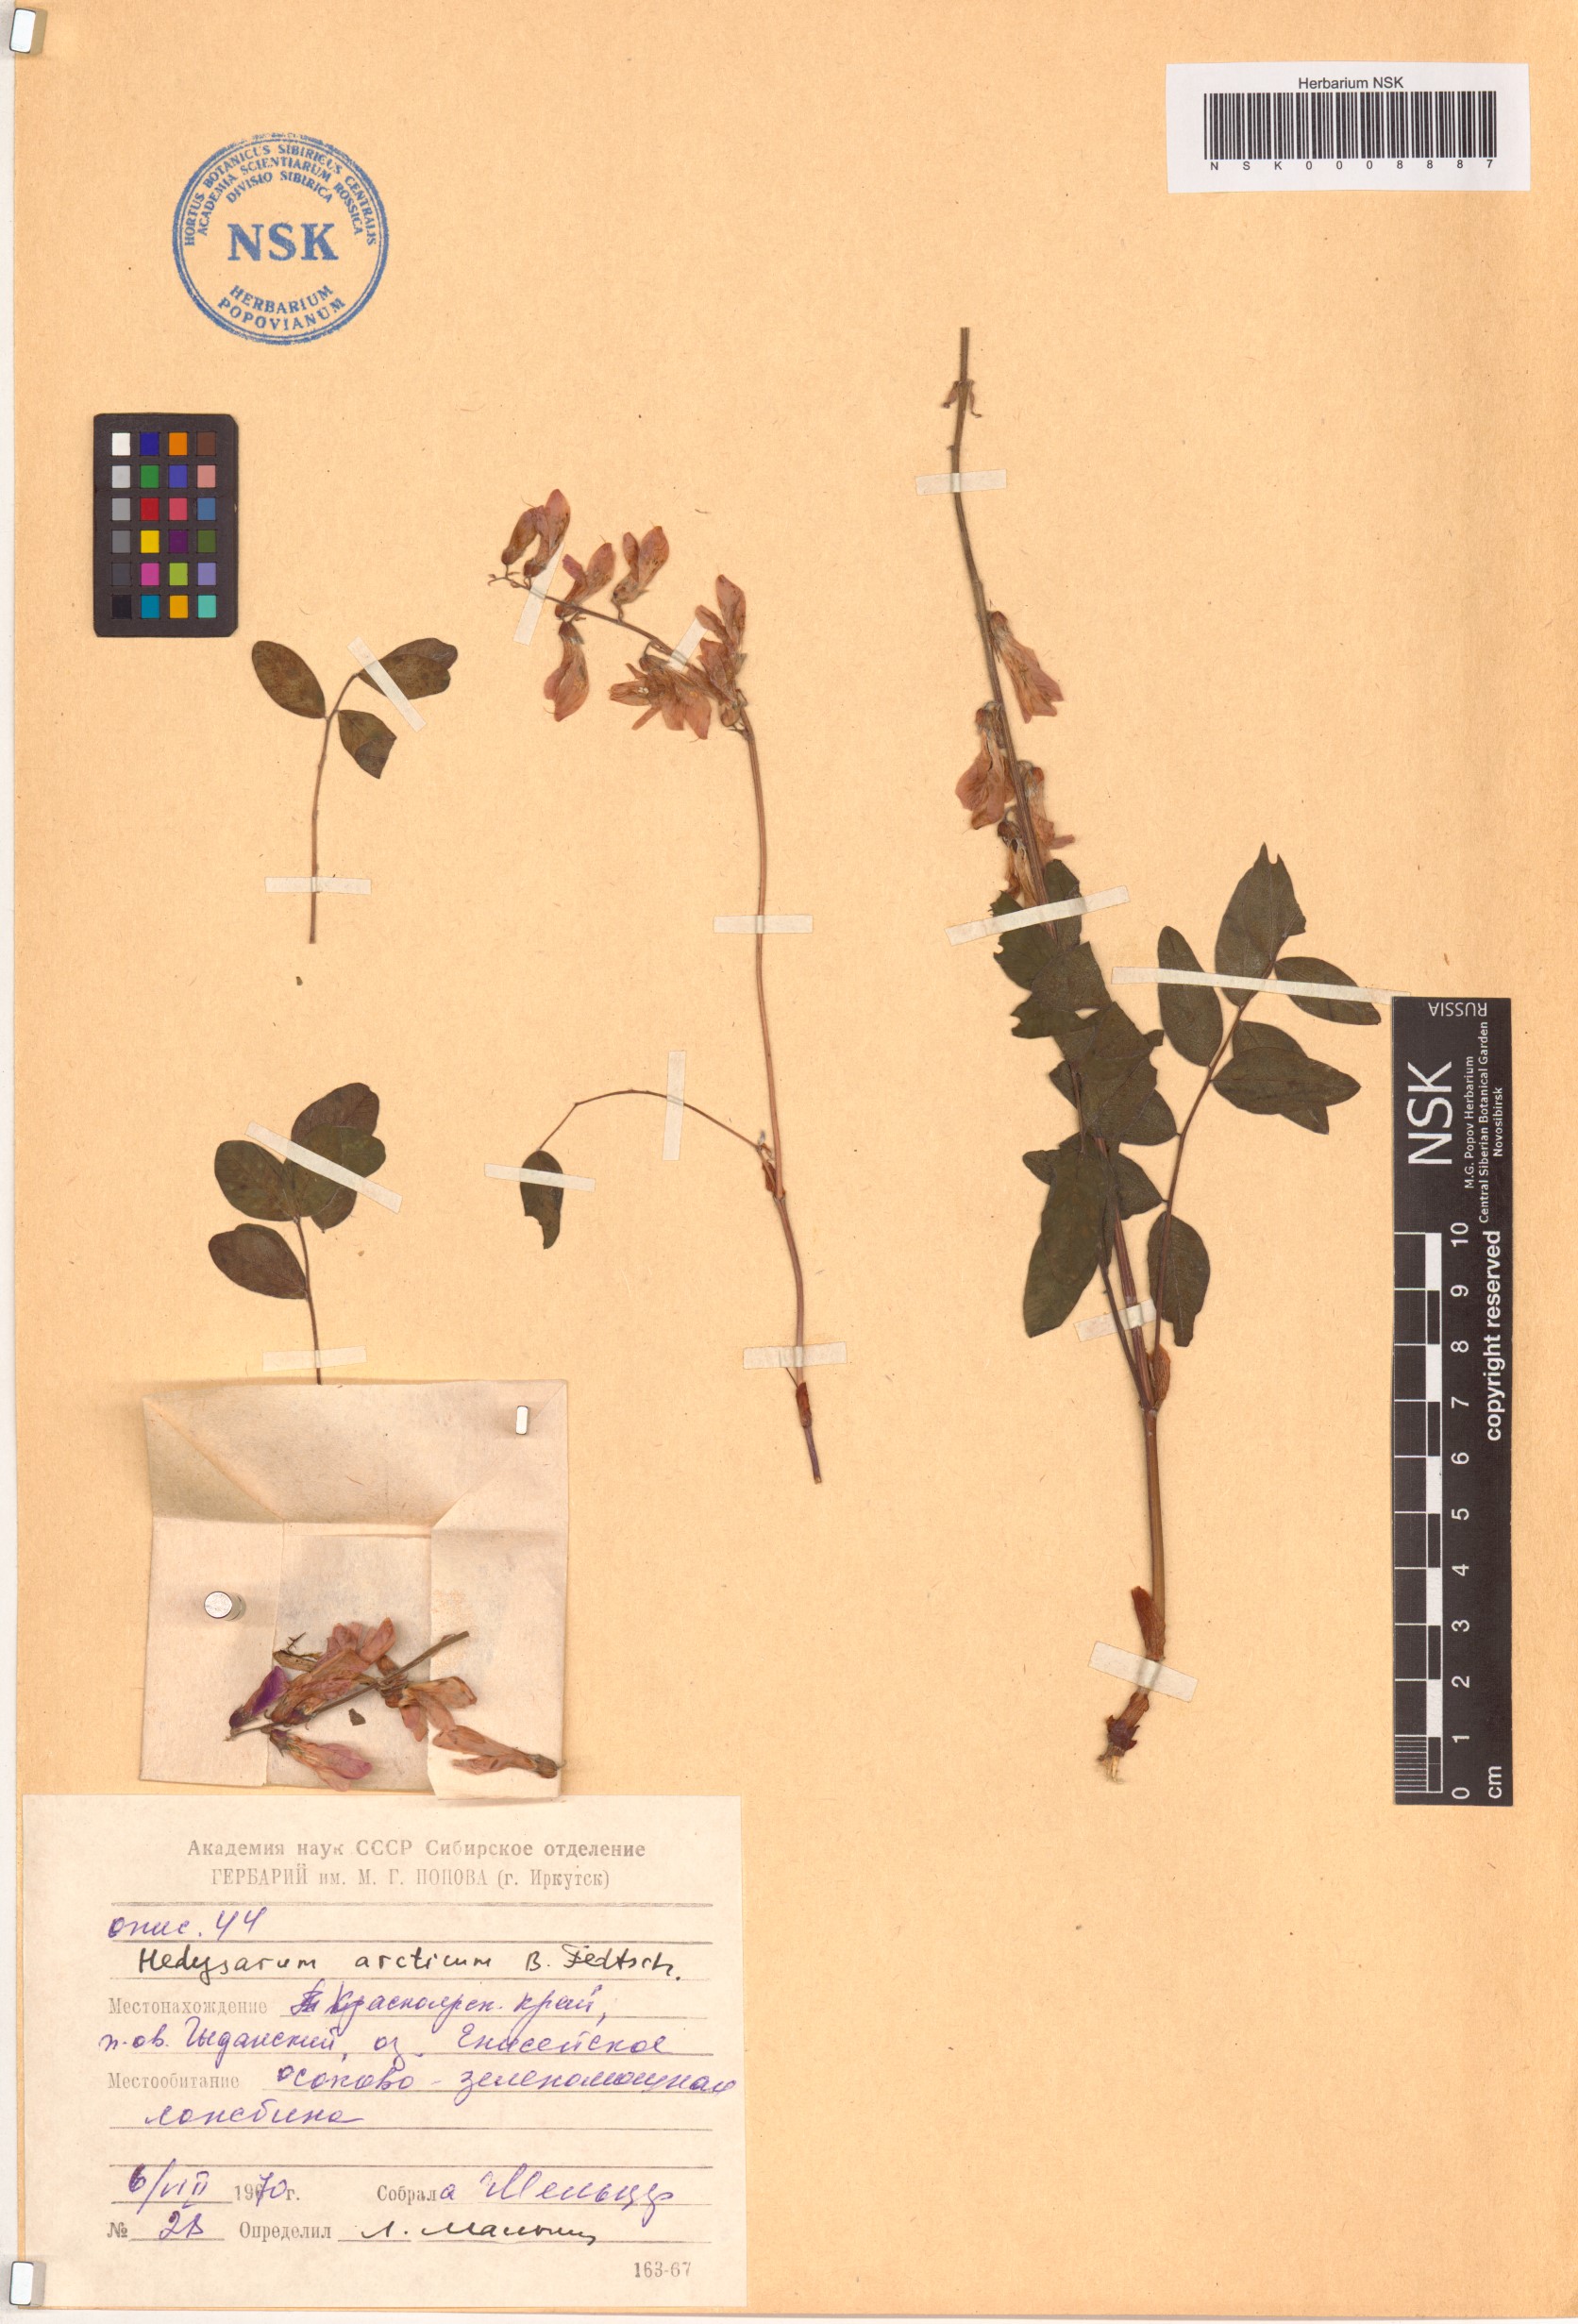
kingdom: Plantae
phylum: Tracheophyta
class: Magnoliopsida
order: Fabales
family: Fabaceae
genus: Hedysarum
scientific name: Hedysarum hedysaroides
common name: Alpine french-honeysuckle
